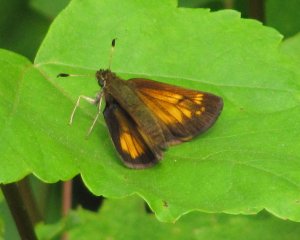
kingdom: Animalia
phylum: Arthropoda
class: Insecta
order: Lepidoptera
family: Hesperiidae
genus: Lon
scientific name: Lon hobomok
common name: Hobomok Skipper
